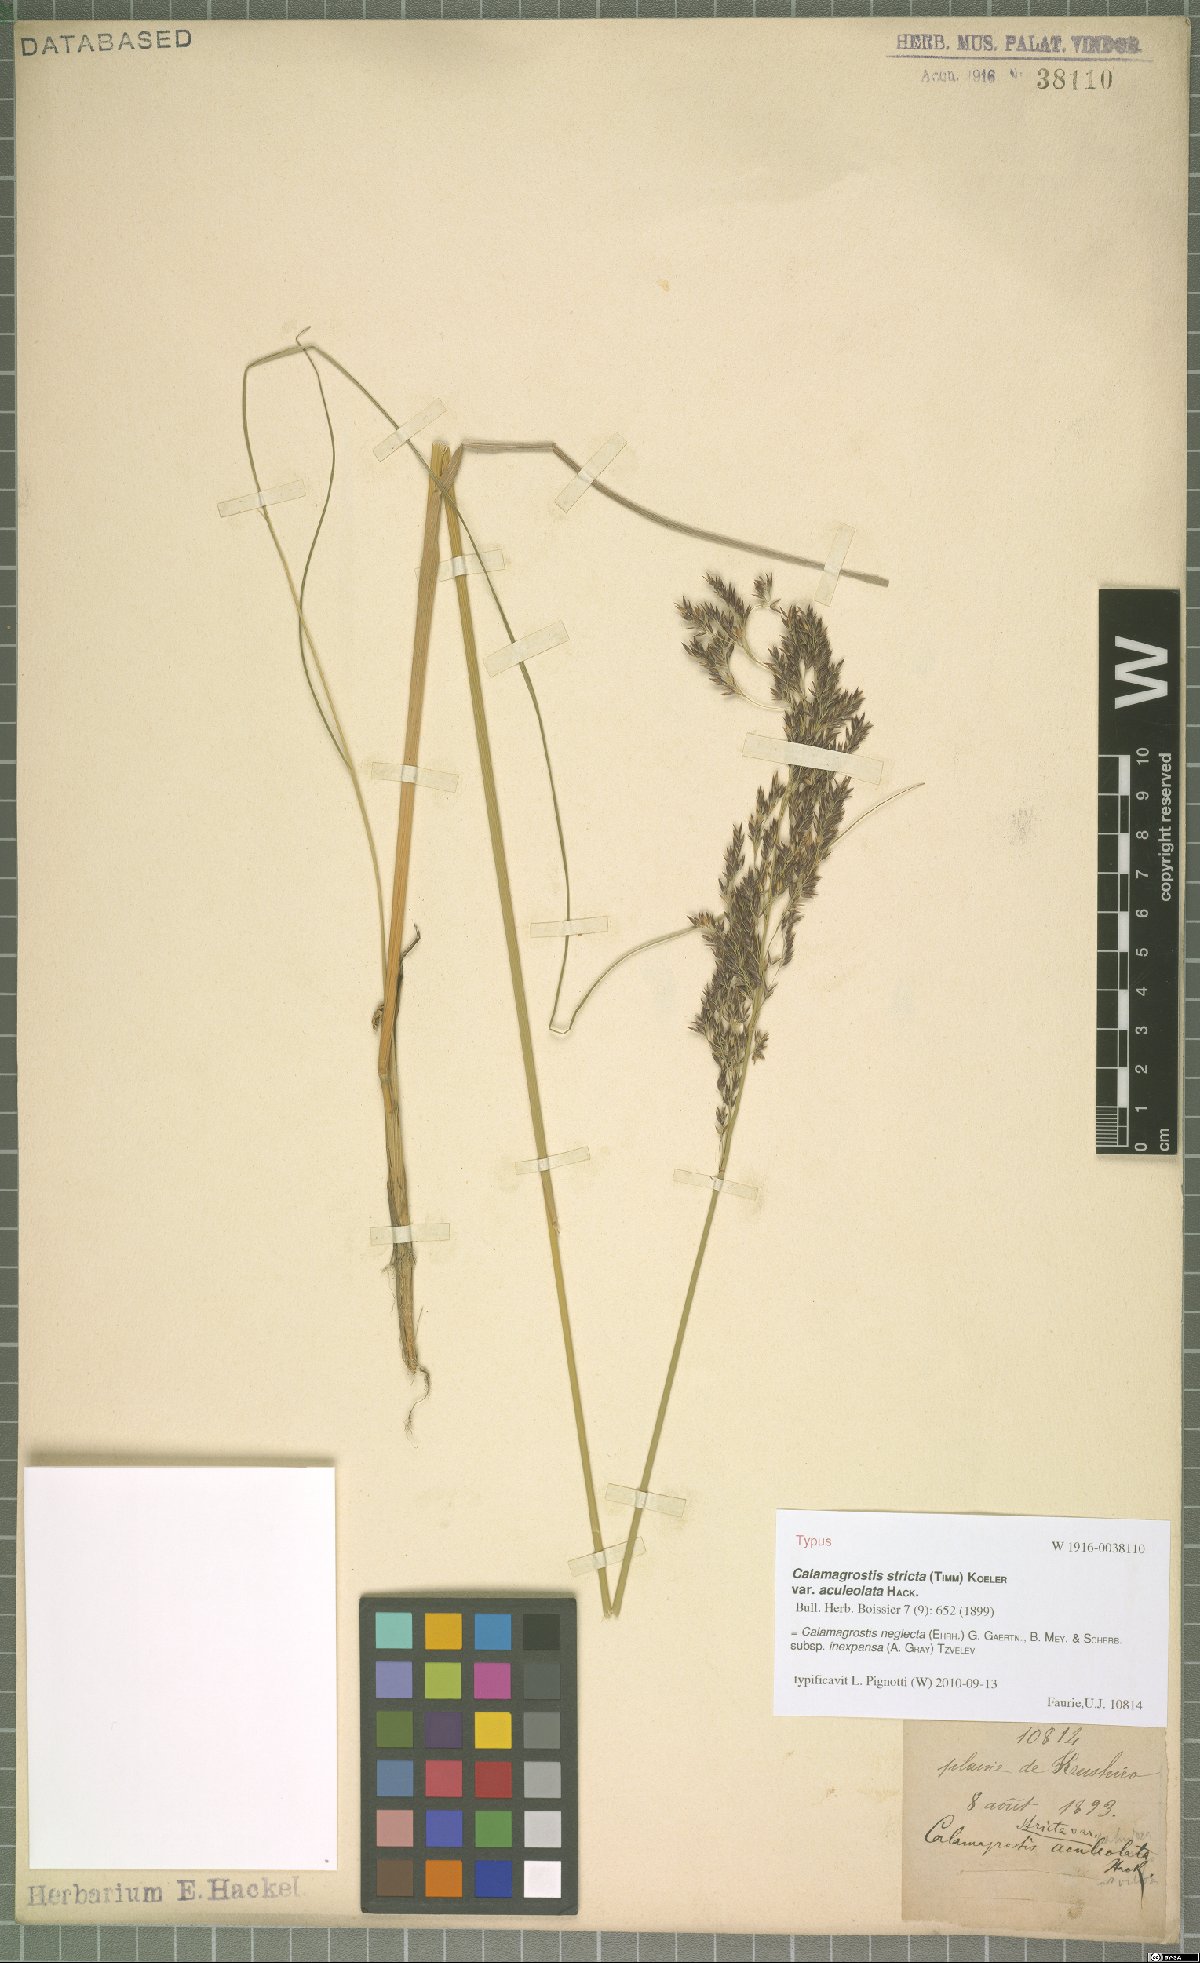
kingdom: Plantae
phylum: Tracheophyta
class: Liliopsida
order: Poales
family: Poaceae
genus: Calamagrostis
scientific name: Calamagrostis inexpansa
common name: Northern reedgrass
